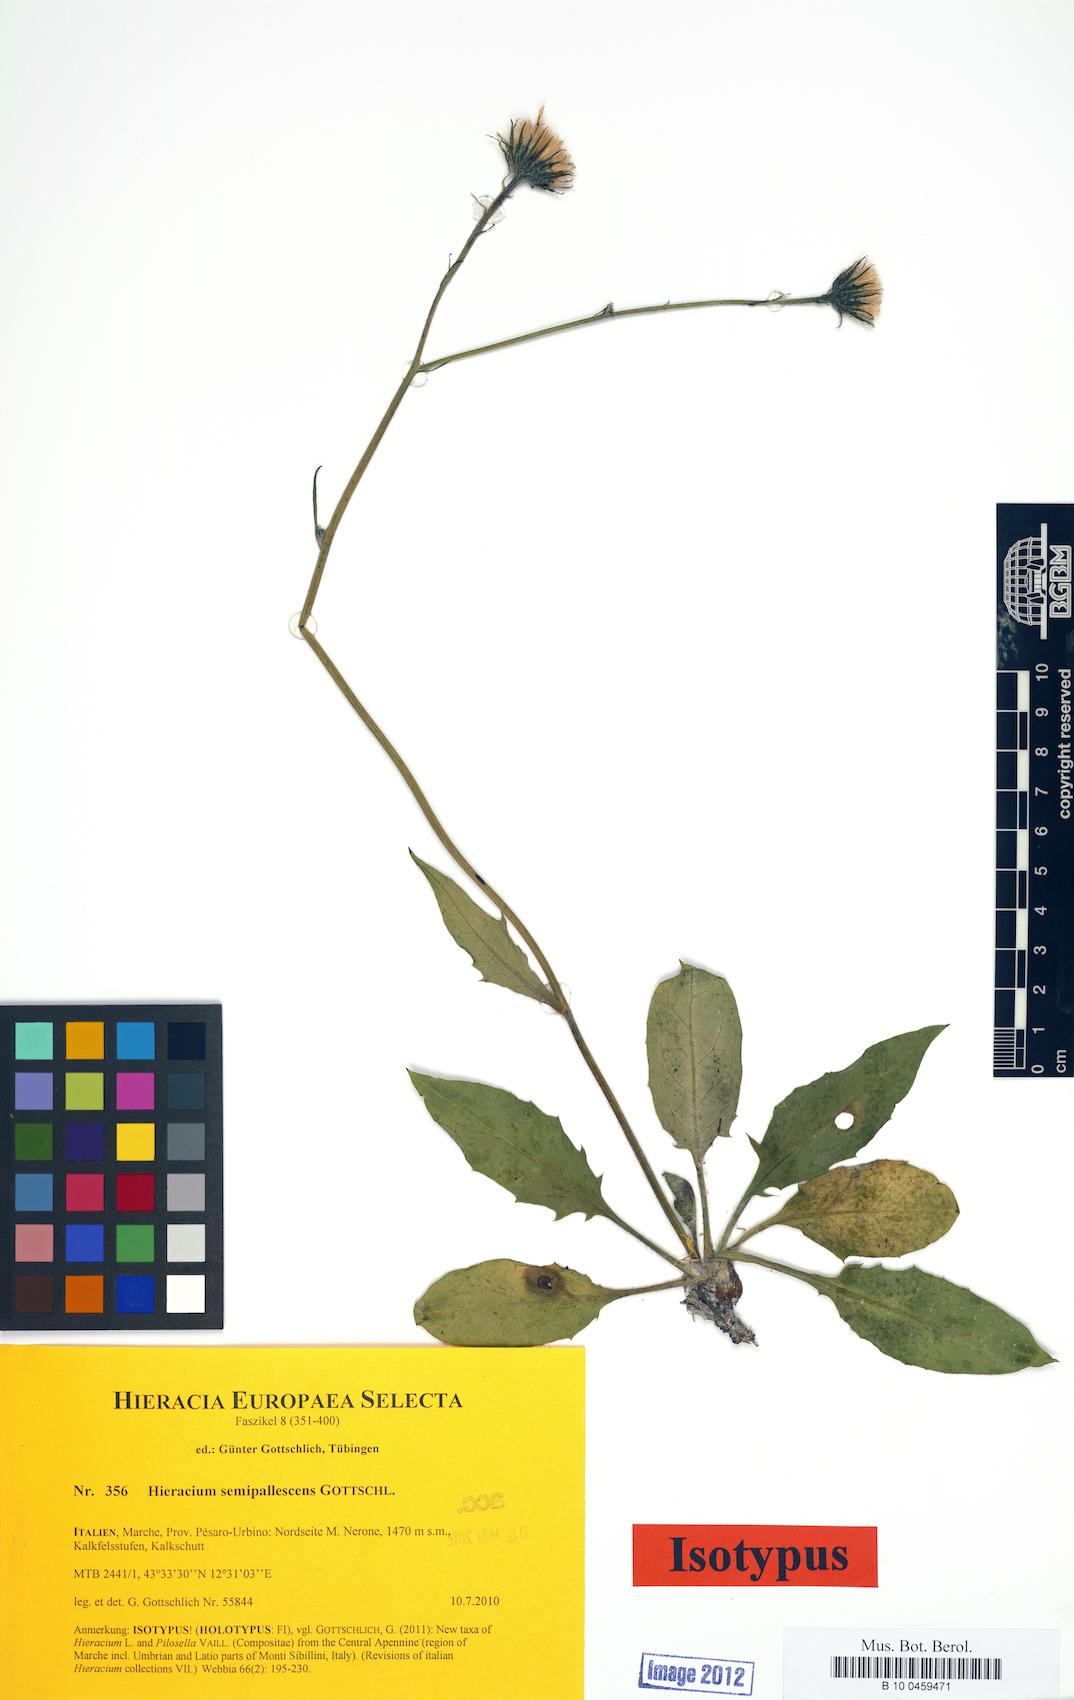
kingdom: Plantae
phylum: Tracheophyta
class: Magnoliopsida
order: Asterales
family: Asteraceae
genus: Hieracium
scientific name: Hieracium semipallescens
